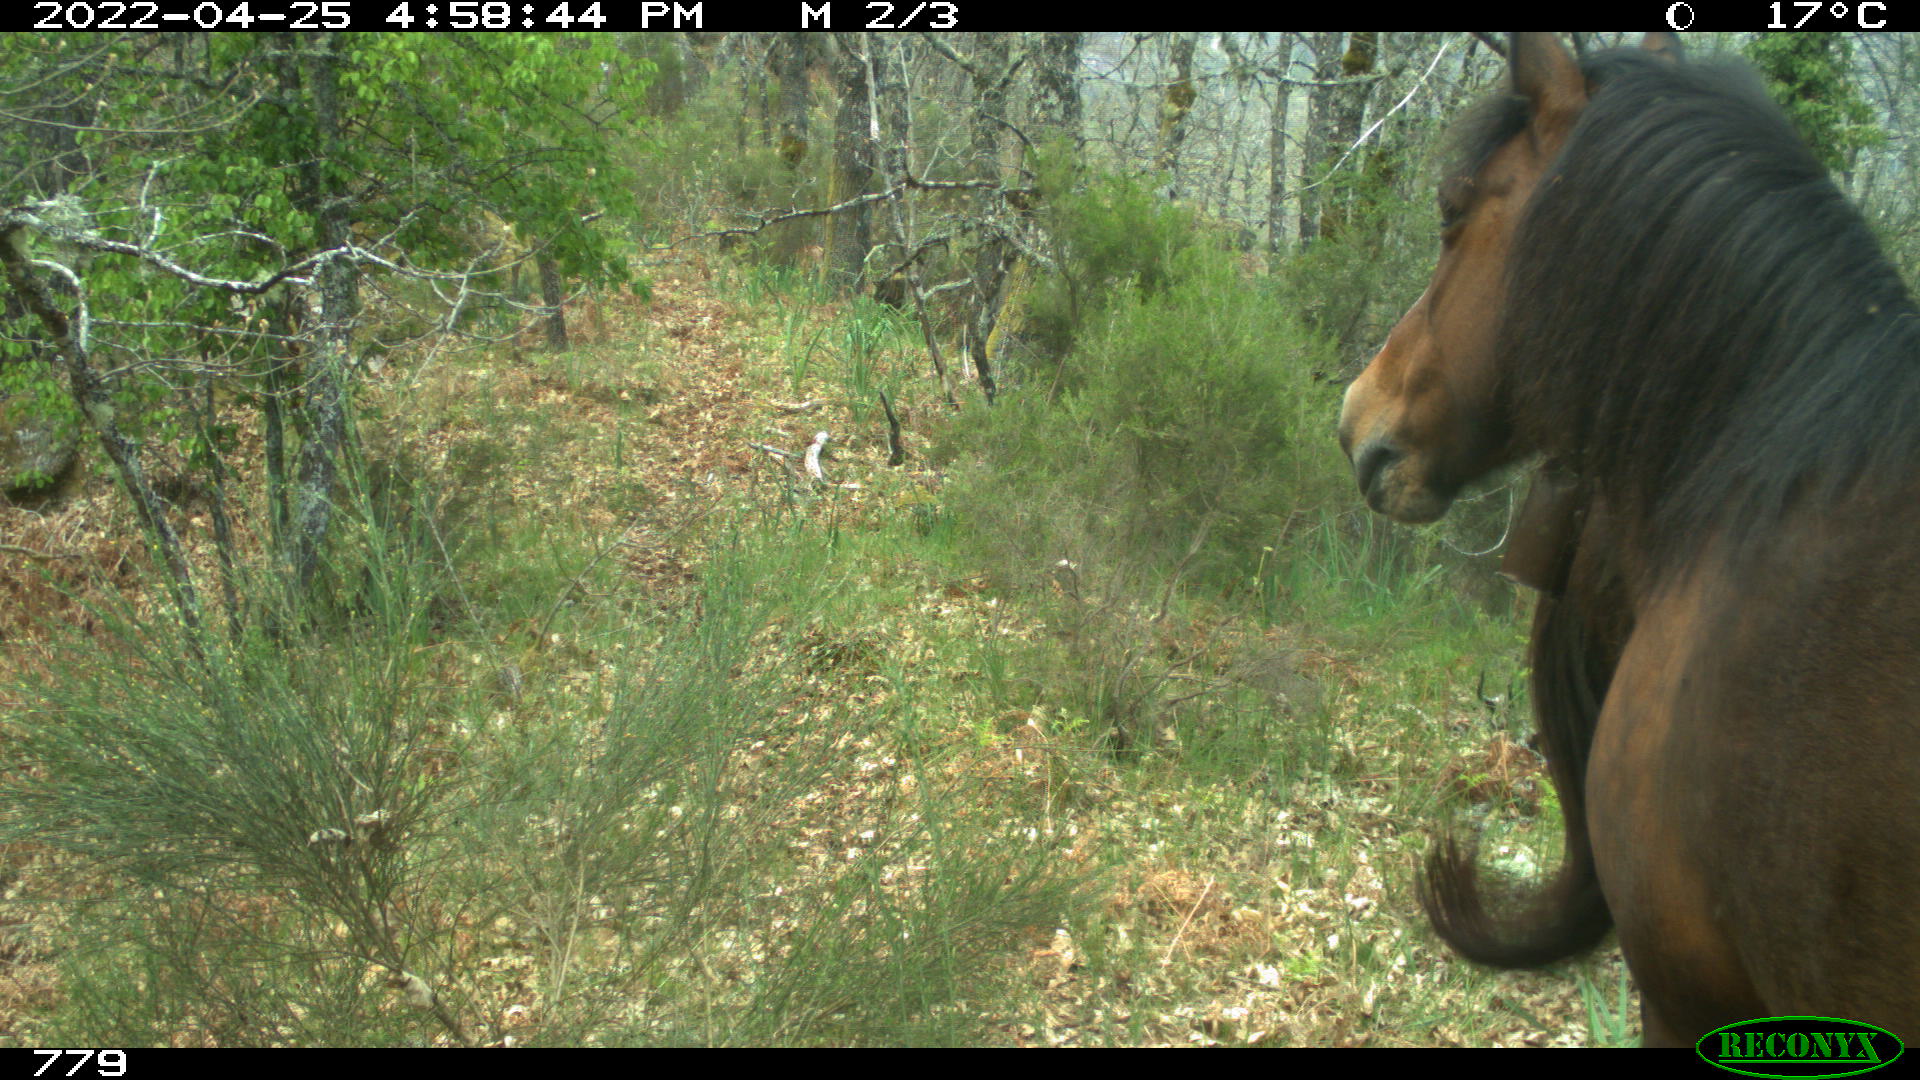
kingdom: Animalia
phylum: Chordata
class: Mammalia
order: Perissodactyla
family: Equidae
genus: Equus
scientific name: Equus caballus
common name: Horse
